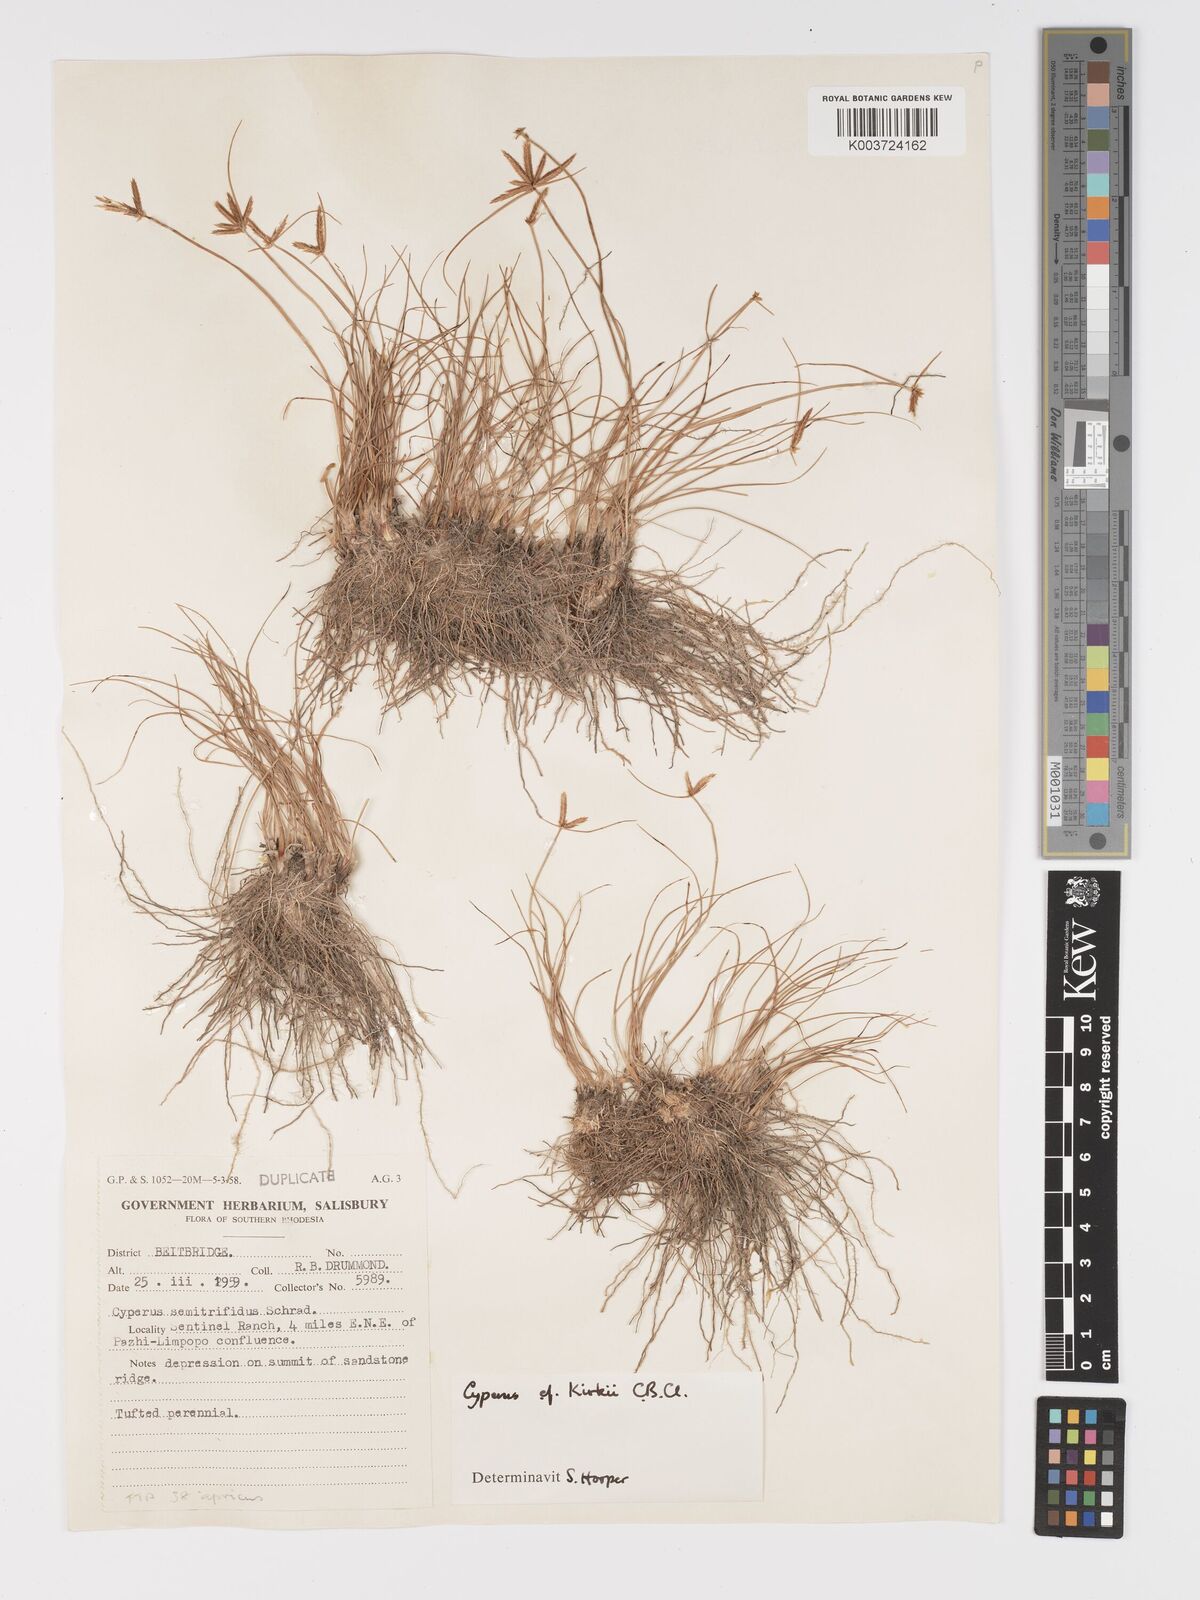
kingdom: Plantae
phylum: Tracheophyta
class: Liliopsida
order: Poales
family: Cyperaceae
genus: Cyperus
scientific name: Cyperus rupestris
